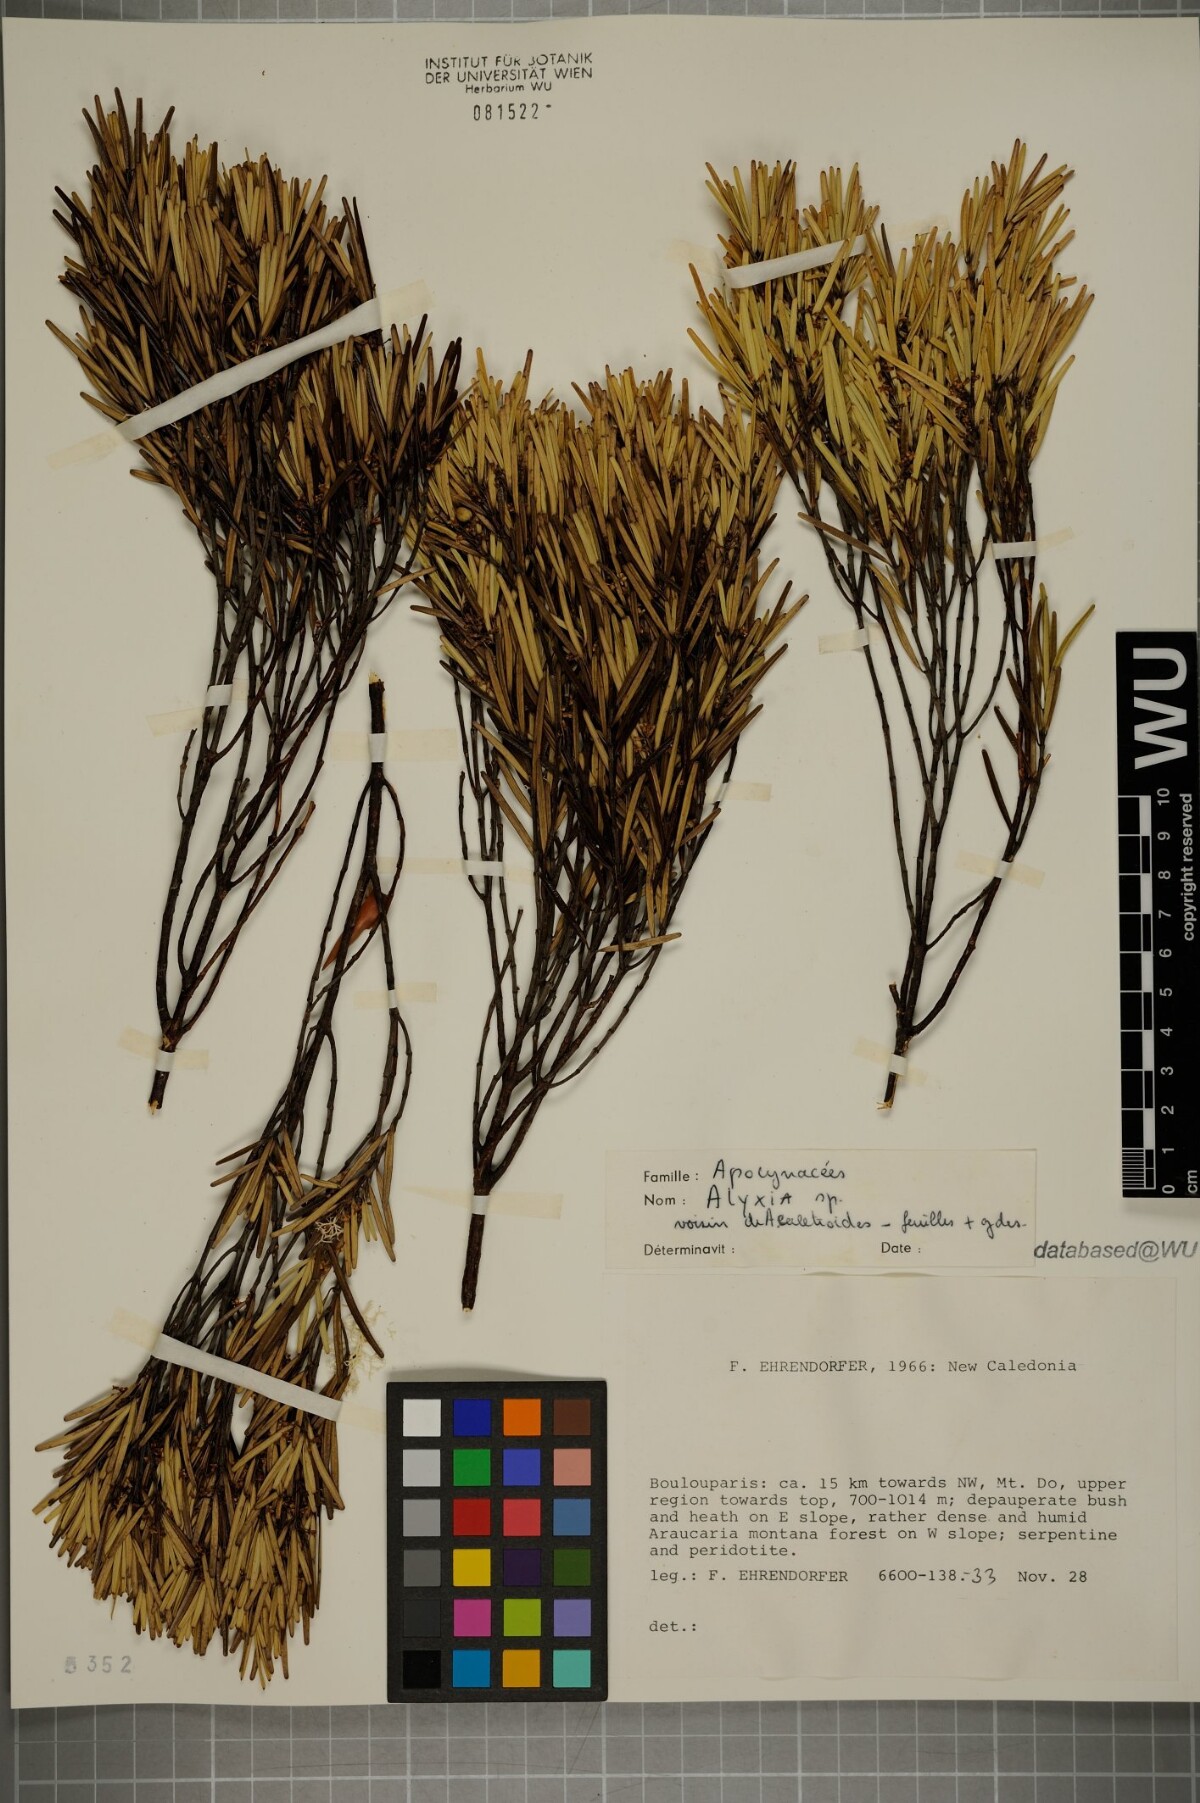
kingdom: Plantae
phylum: Tracheophyta
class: Magnoliopsida
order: Gentianales
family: Apocynaceae
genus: Alyxia
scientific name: Alyxia
